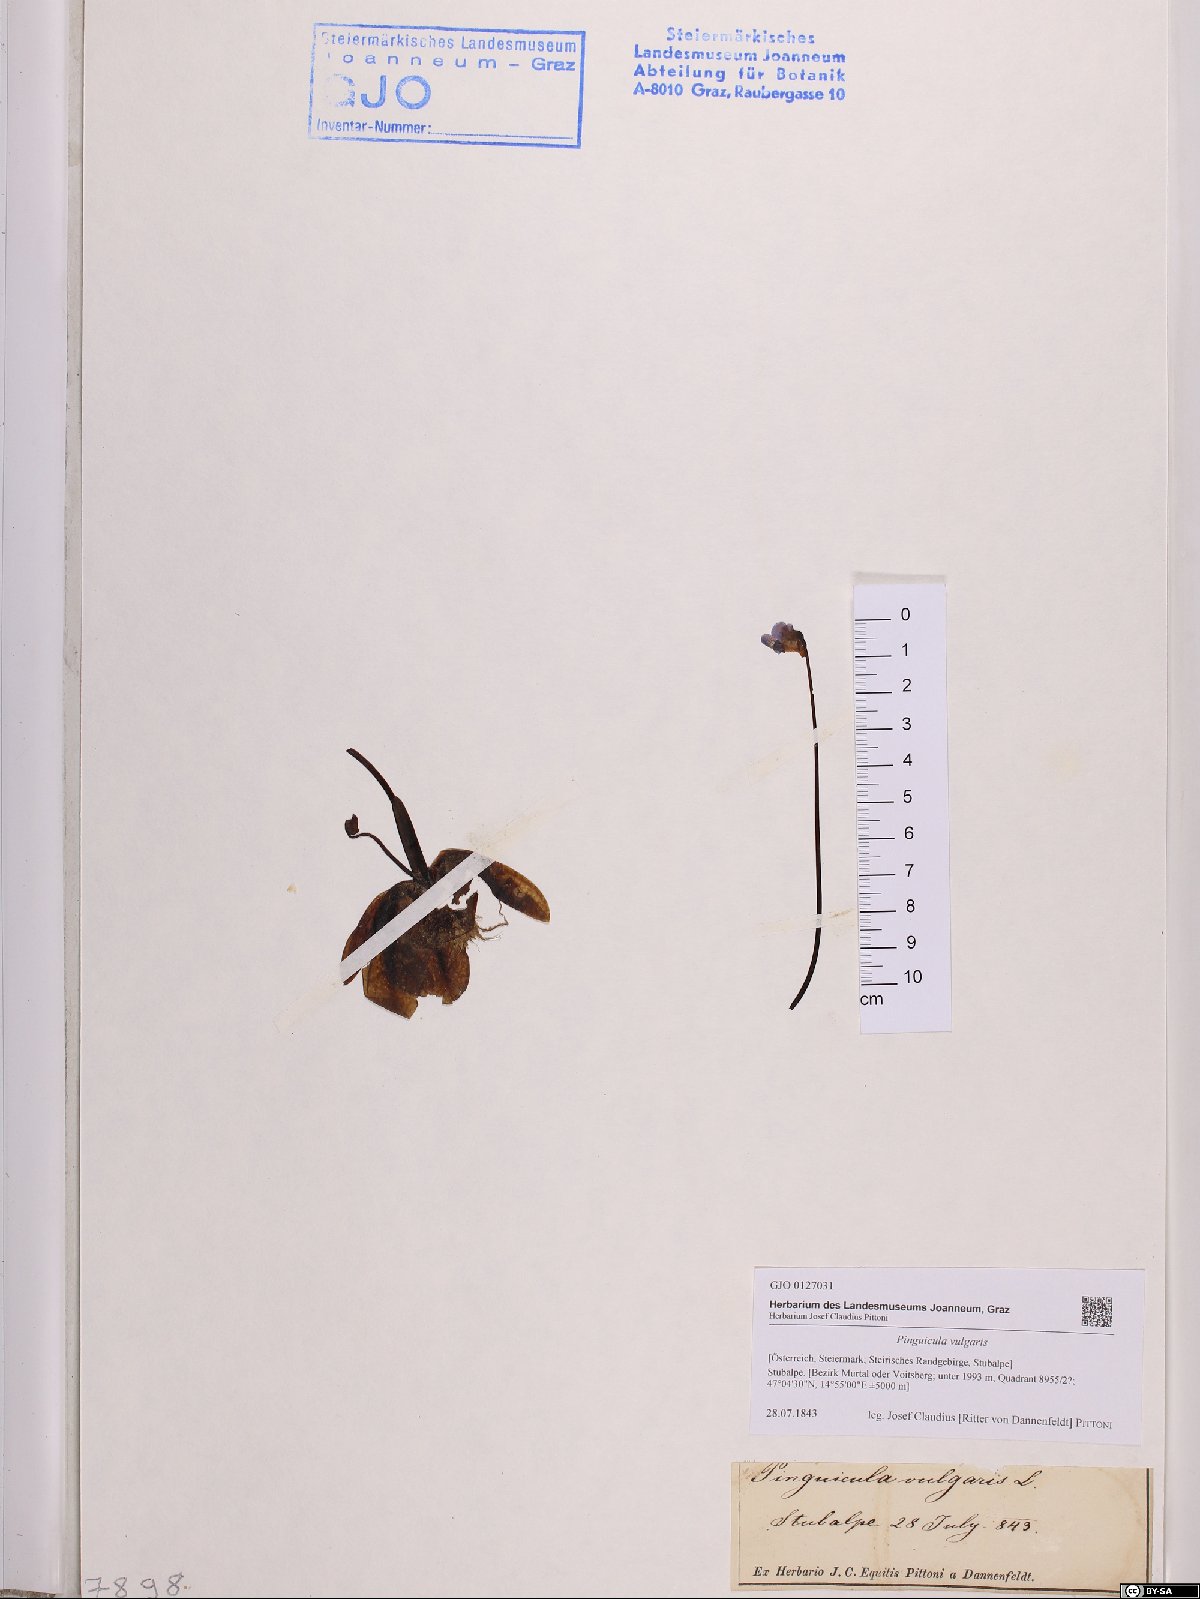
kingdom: Plantae
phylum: Tracheophyta
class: Magnoliopsida
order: Lamiales
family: Lentibulariaceae
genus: Pinguicula
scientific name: Pinguicula vulgaris
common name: Common butterwort
